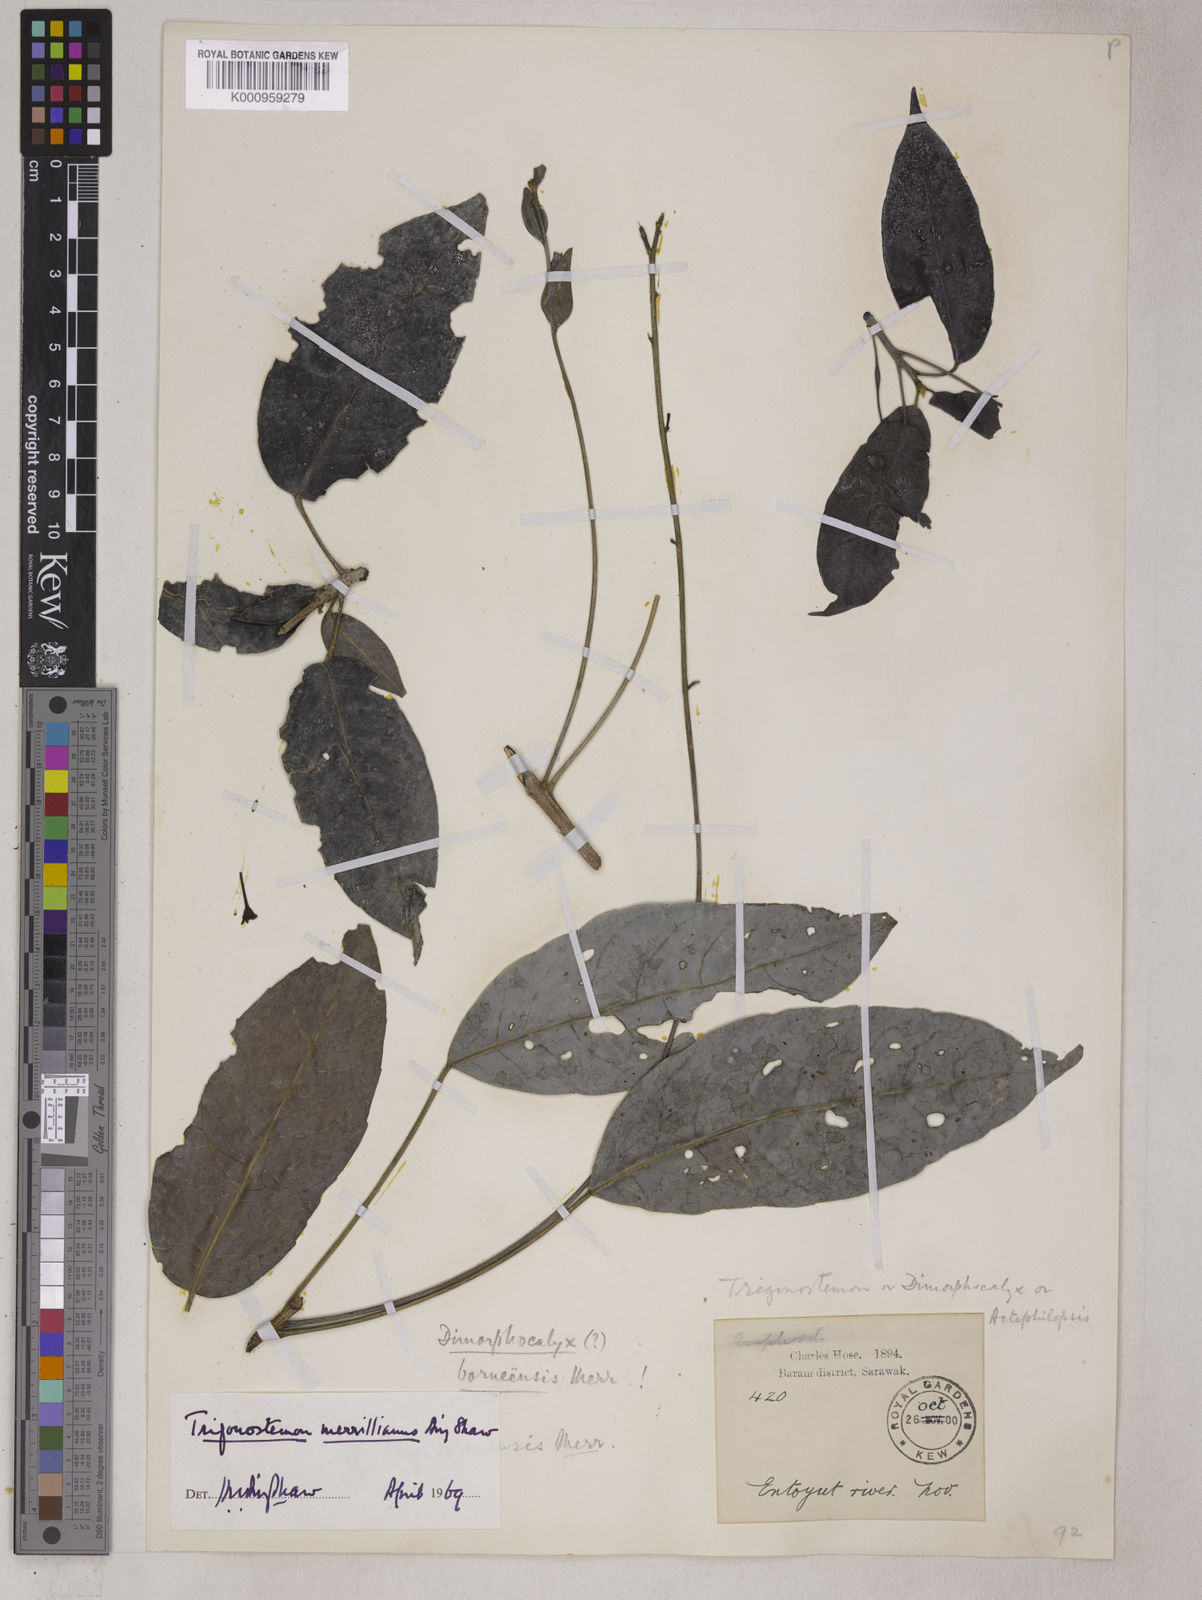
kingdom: Plantae
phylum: Tracheophyta
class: Magnoliopsida
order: Malpighiales
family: Euphorbiaceae
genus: Trigonostemon
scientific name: Trigonostemon villosus
